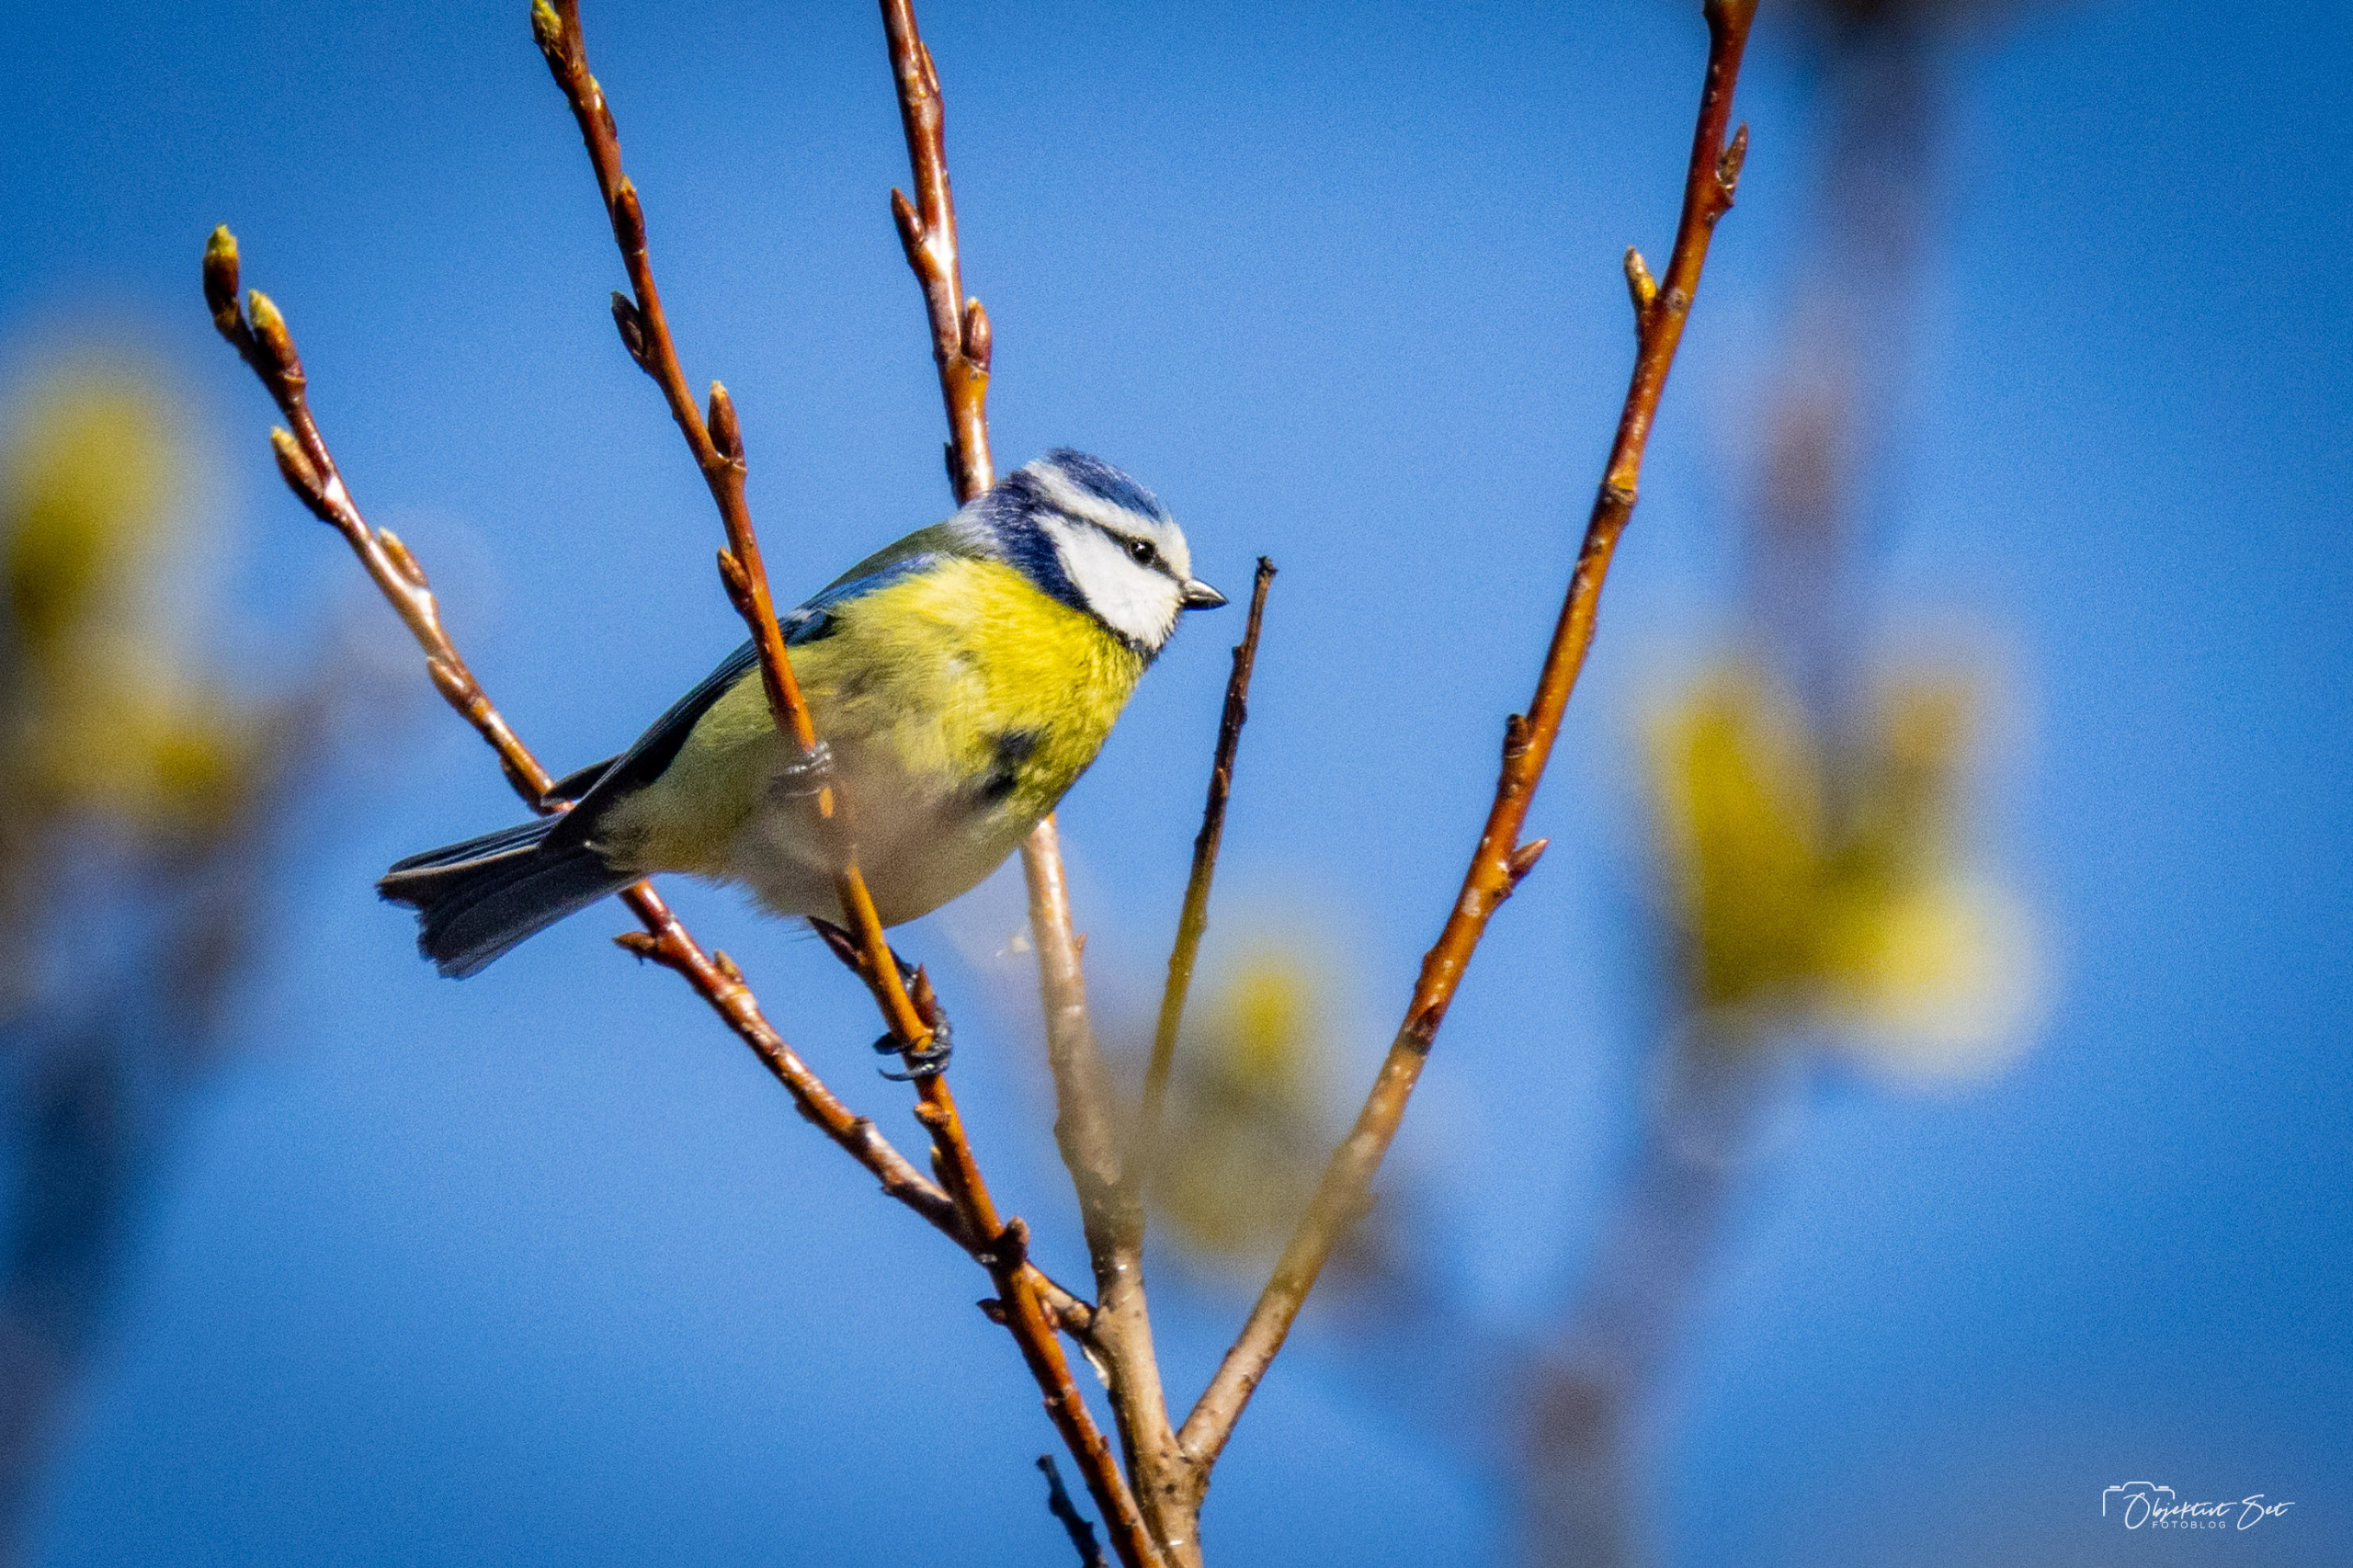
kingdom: Animalia
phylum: Chordata
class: Aves
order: Passeriformes
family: Paridae
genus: Cyanistes
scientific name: Cyanistes caeruleus
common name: Blåmejse
